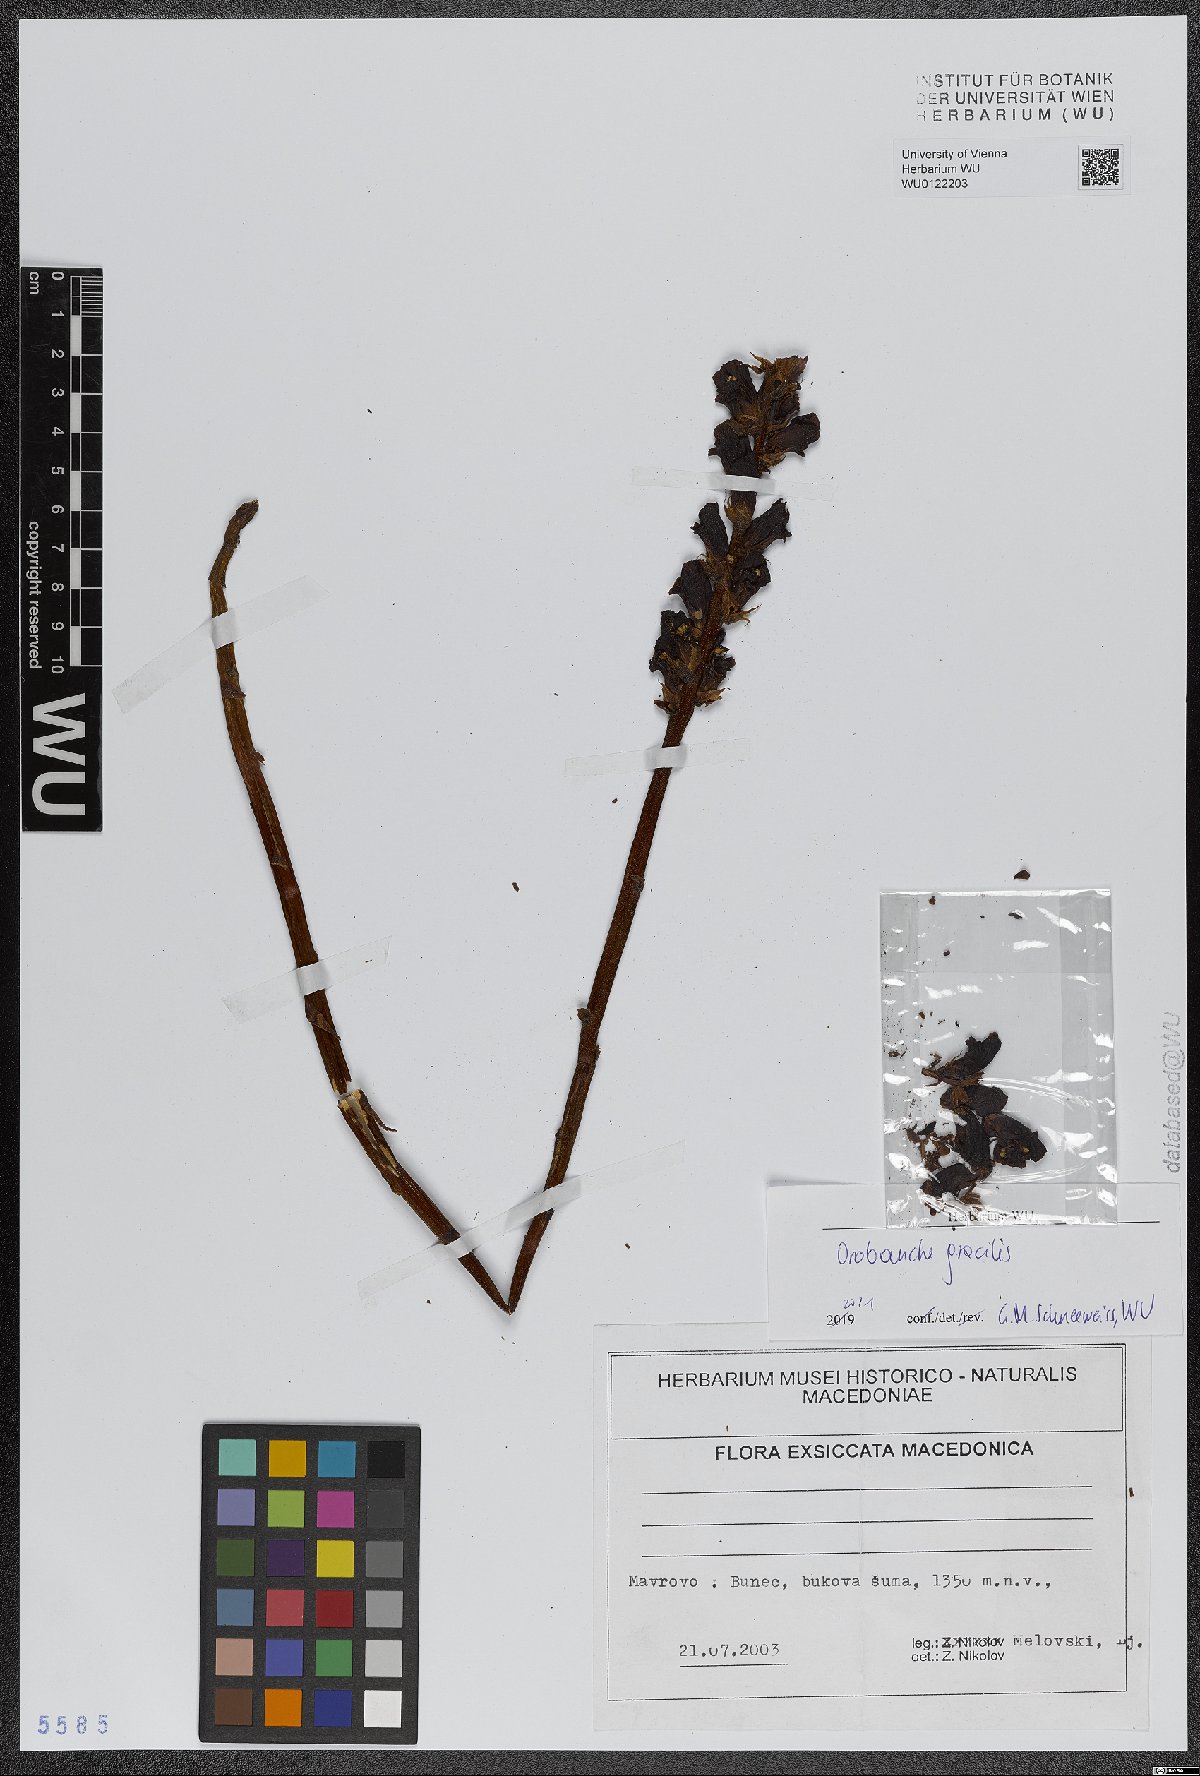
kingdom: Plantae
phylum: Tracheophyta
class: Magnoliopsida
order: Lamiales
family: Orobanchaceae
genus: Orobanche
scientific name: Orobanche gracilis
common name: Slender broomrape
